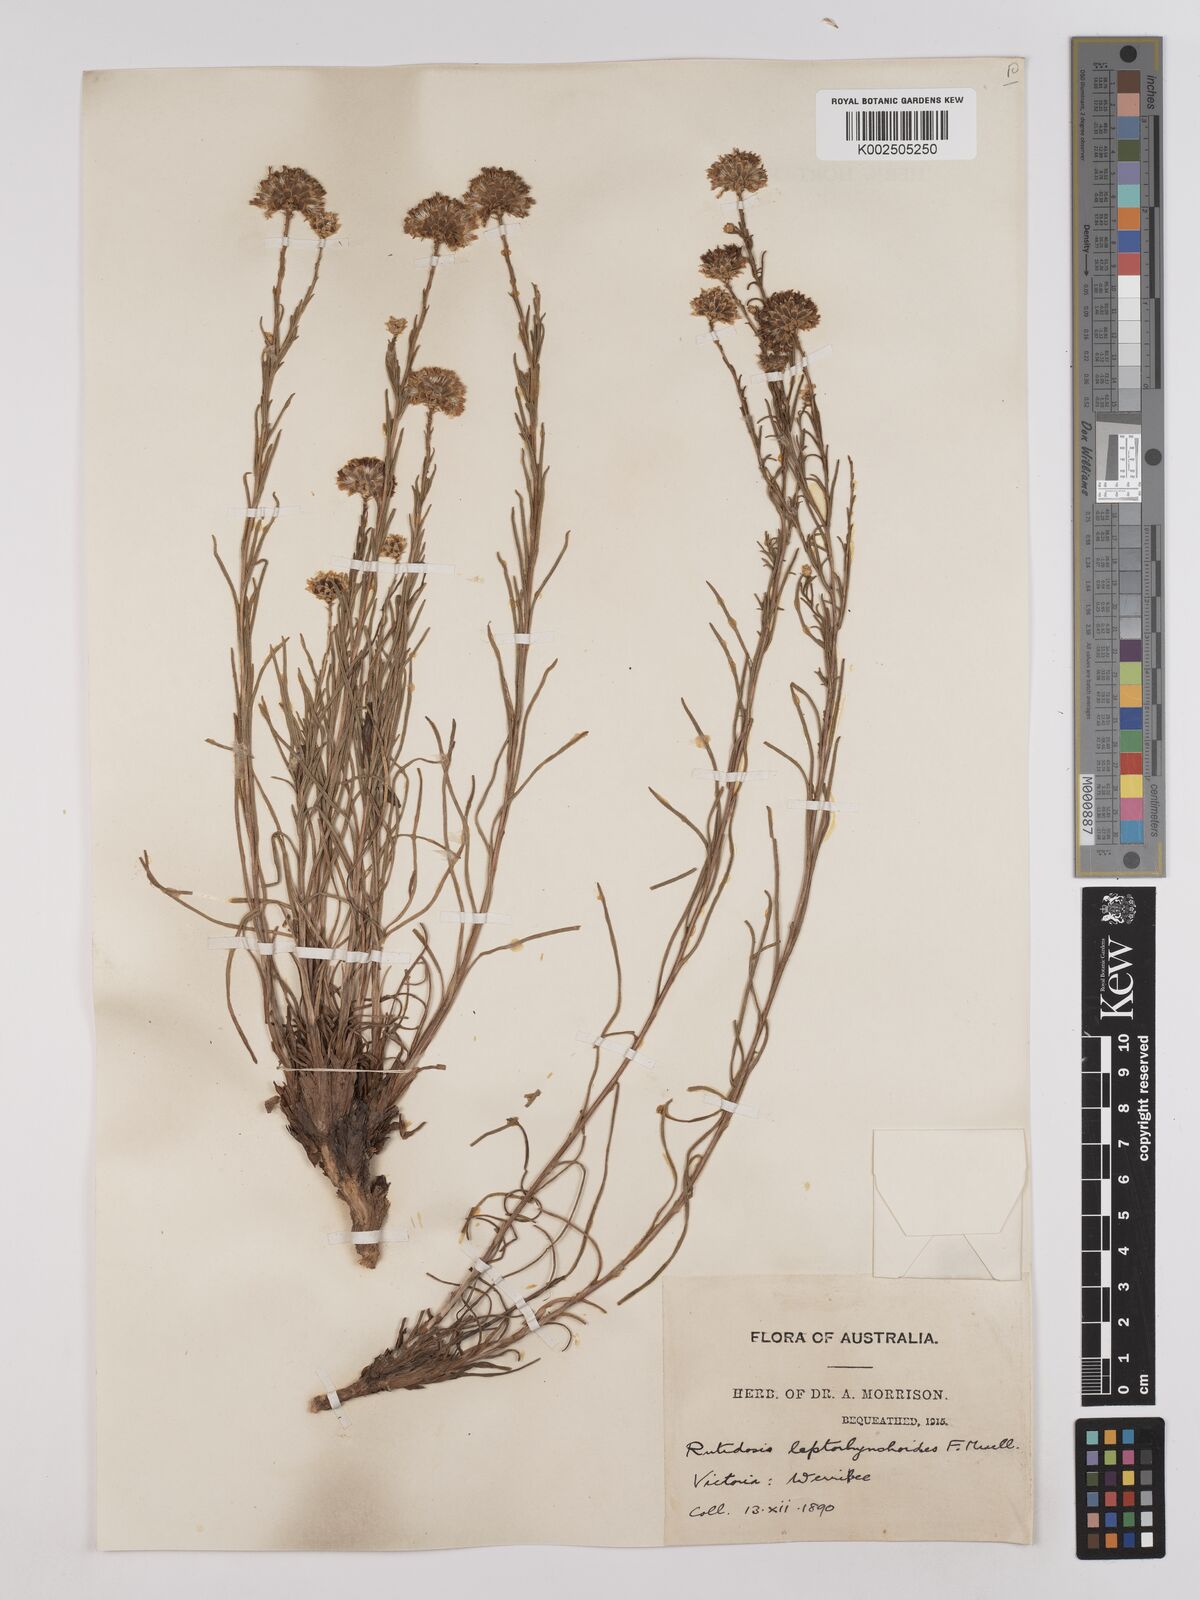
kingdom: Plantae
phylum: Tracheophyta
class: Magnoliopsida
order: Asterales
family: Asteraceae
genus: Rutidosis
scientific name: Rutidosis leptorrhynchoides
